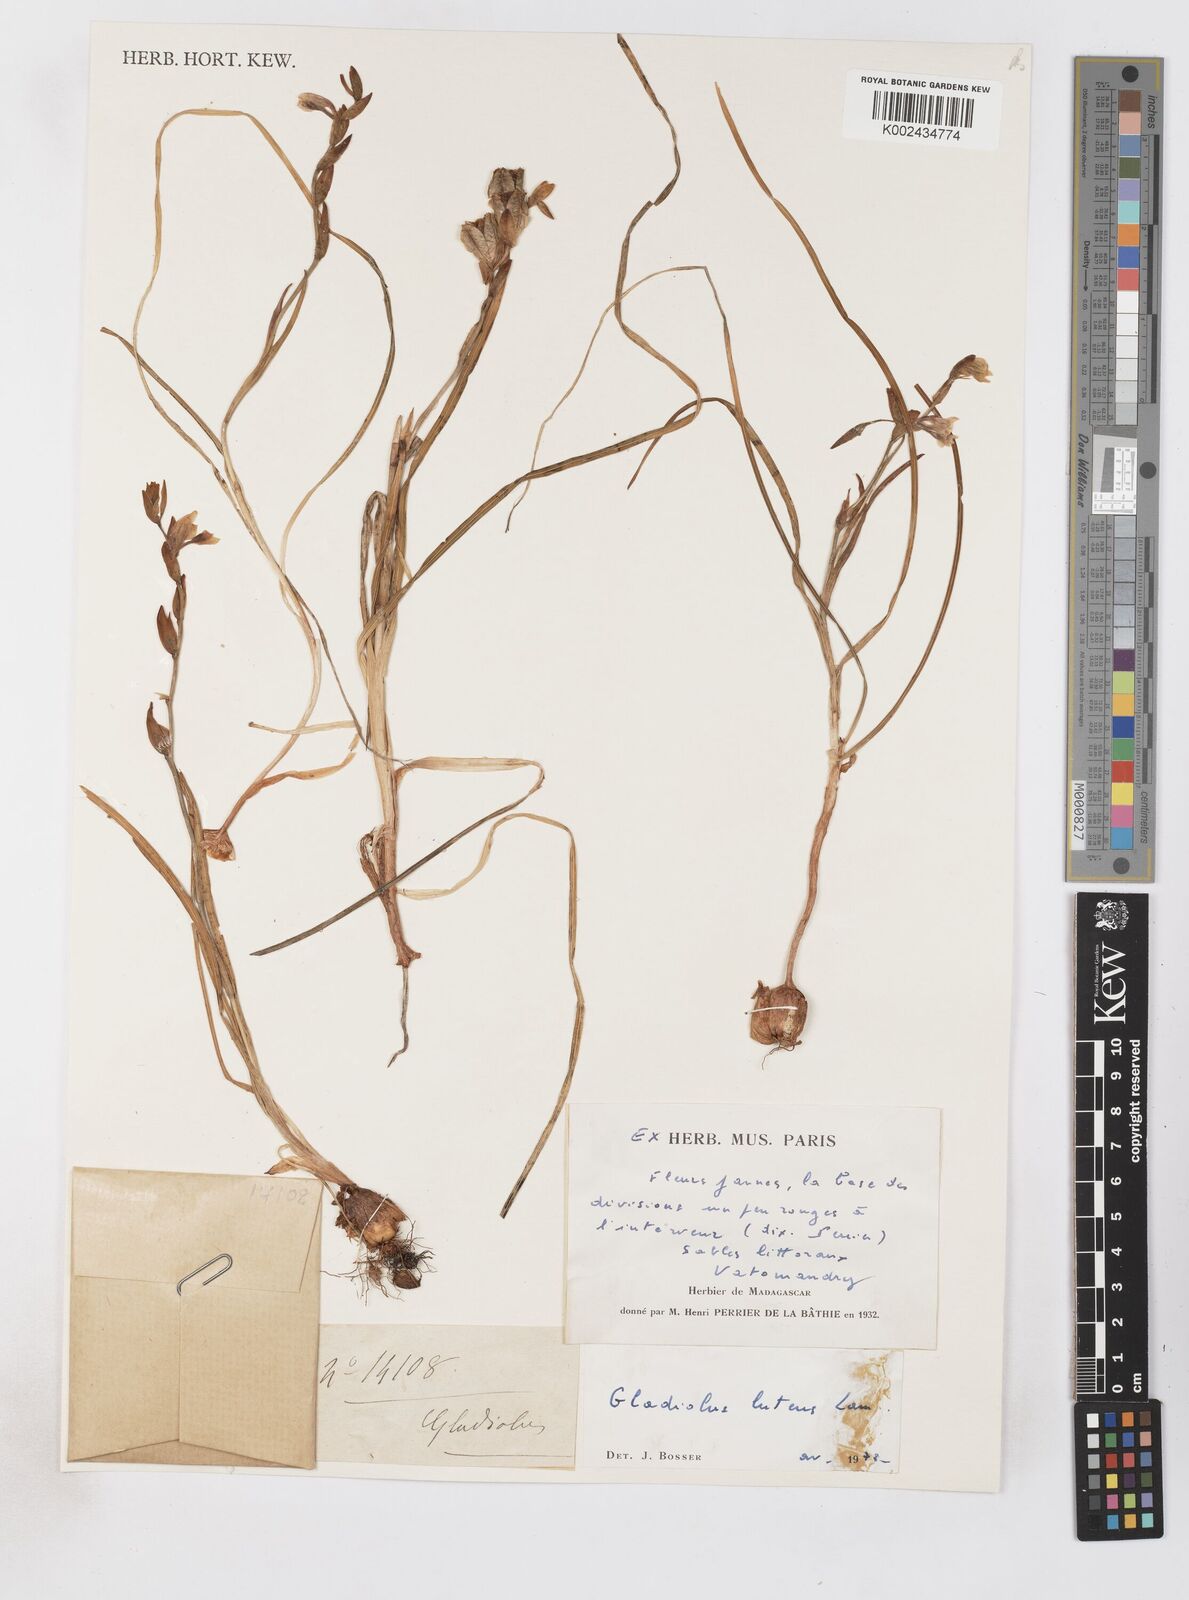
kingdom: Plantae
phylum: Tracheophyta
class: Liliopsida
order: Asparagales
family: Iridaceae
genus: Gladiolus
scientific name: Gladiolus luteus
